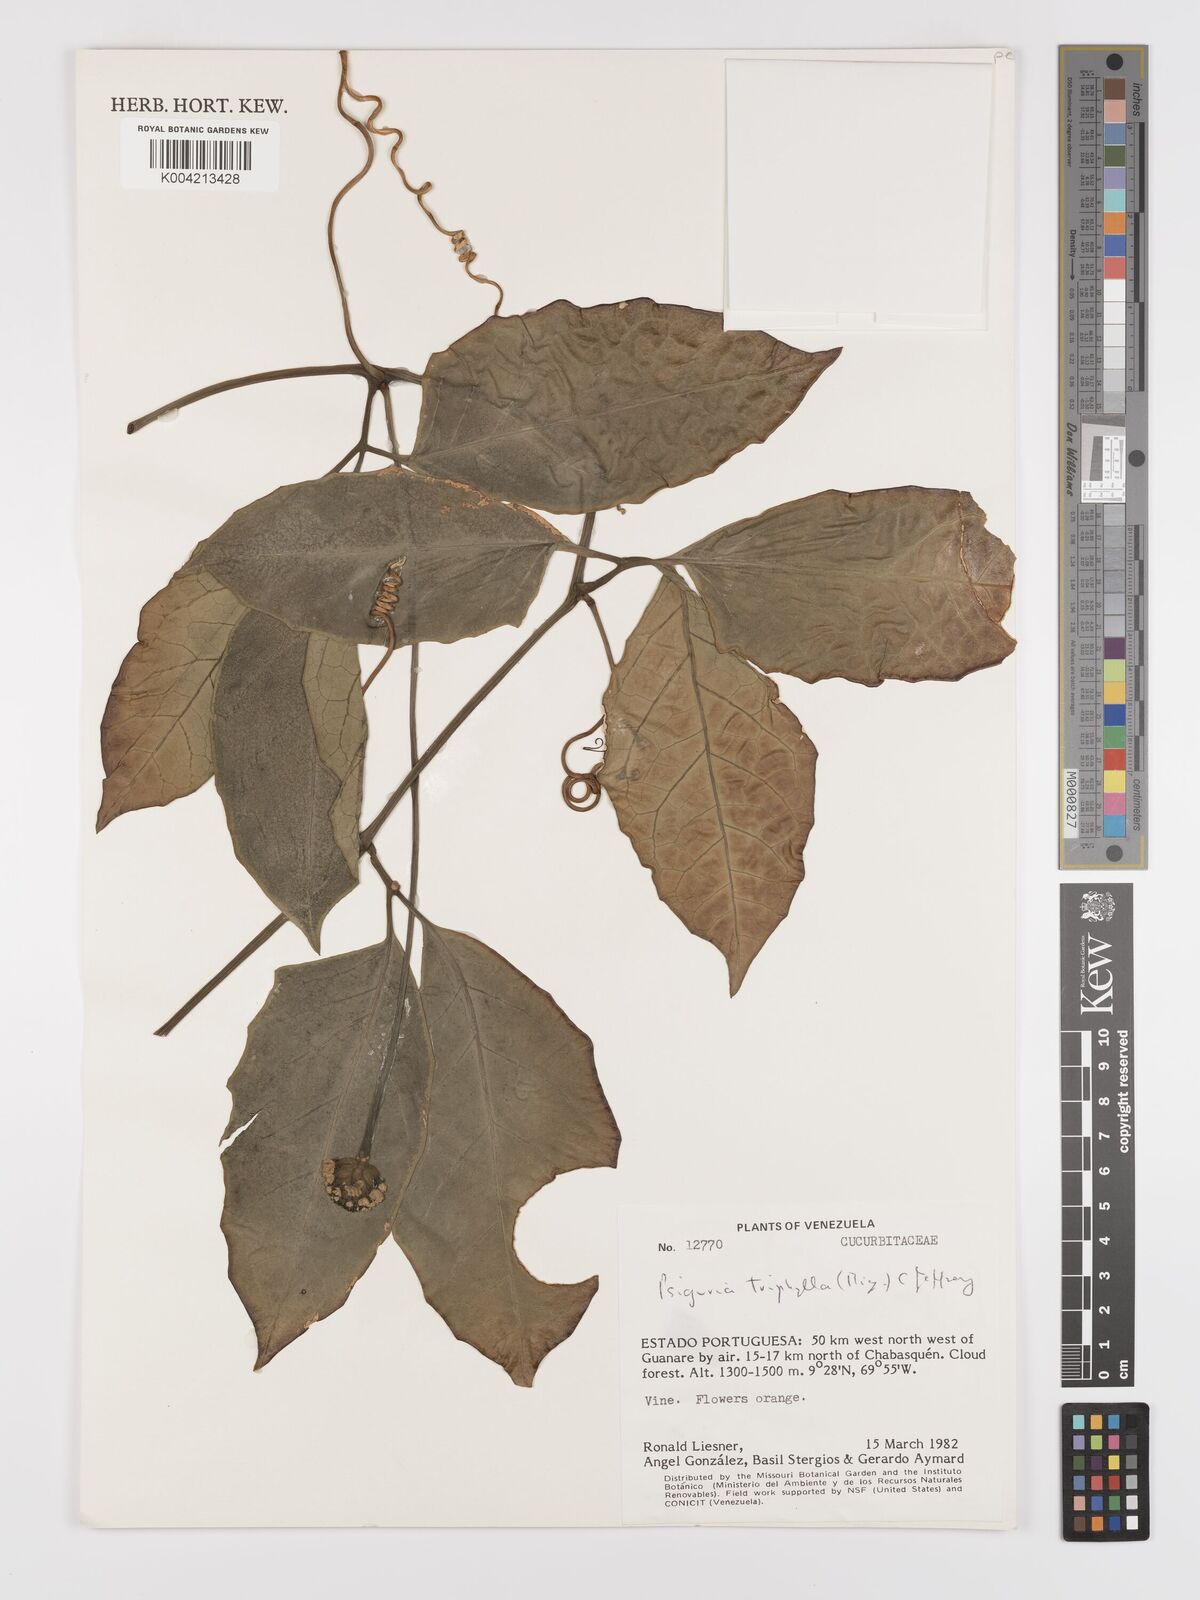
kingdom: Plantae
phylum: Tracheophyta
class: Magnoliopsida
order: Cucurbitales
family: Cucurbitaceae
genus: Psiguria
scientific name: Psiguria triphylla
